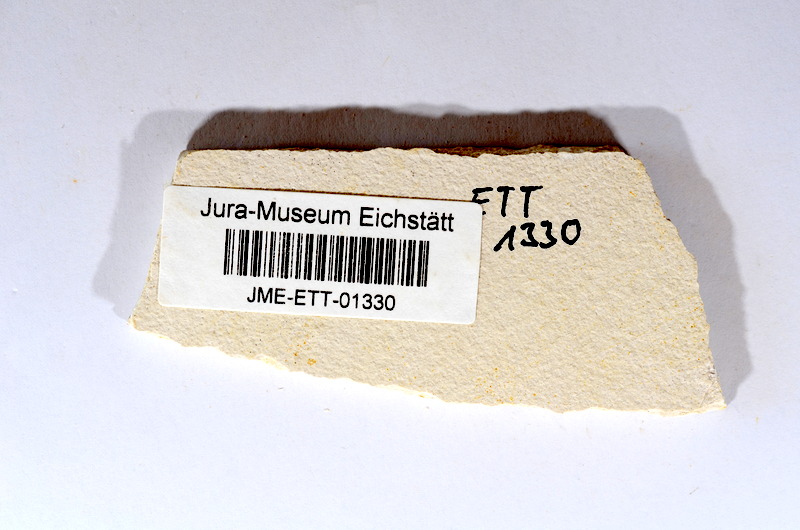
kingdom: Animalia
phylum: Chordata
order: Salmoniformes
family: Orthogonikleithridae
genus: Orthogonikleithrus
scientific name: Orthogonikleithrus hoelli
